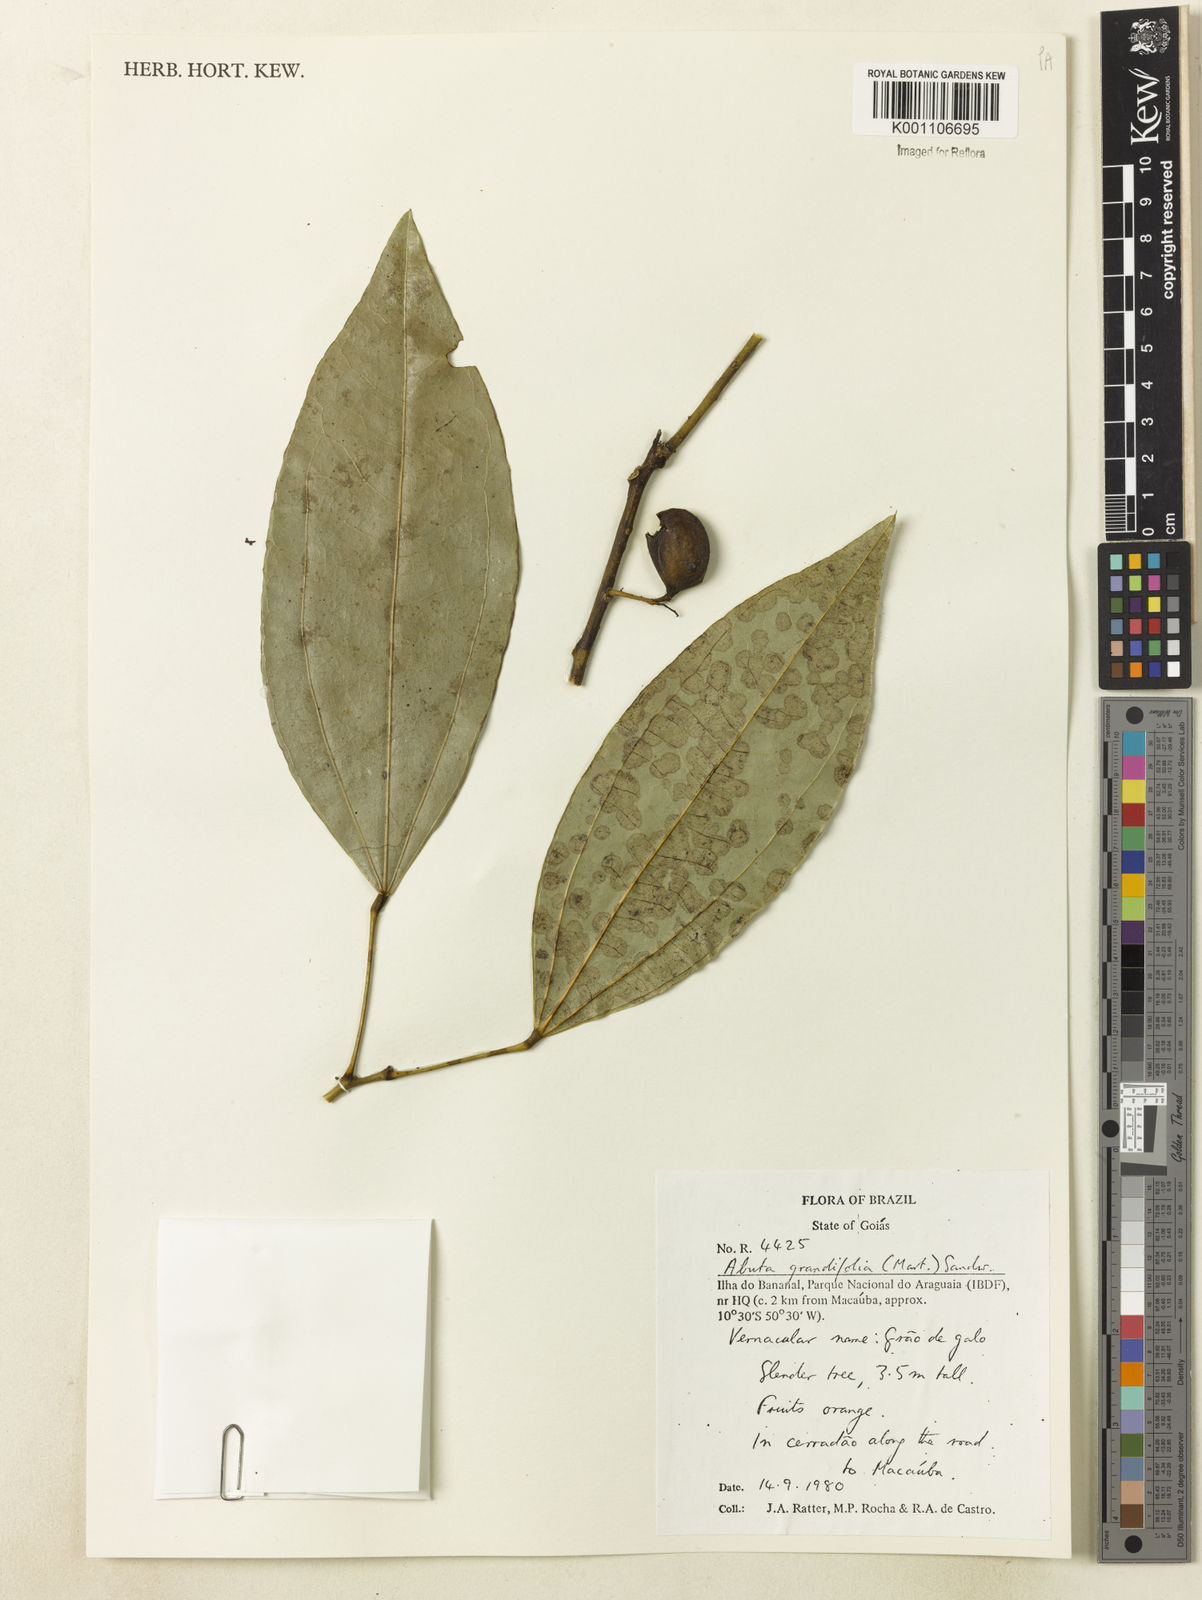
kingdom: Plantae
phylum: Tracheophyta
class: Magnoliopsida
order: Ranunculales
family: Menispermaceae
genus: Abuta
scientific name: Abuta grandifolia
